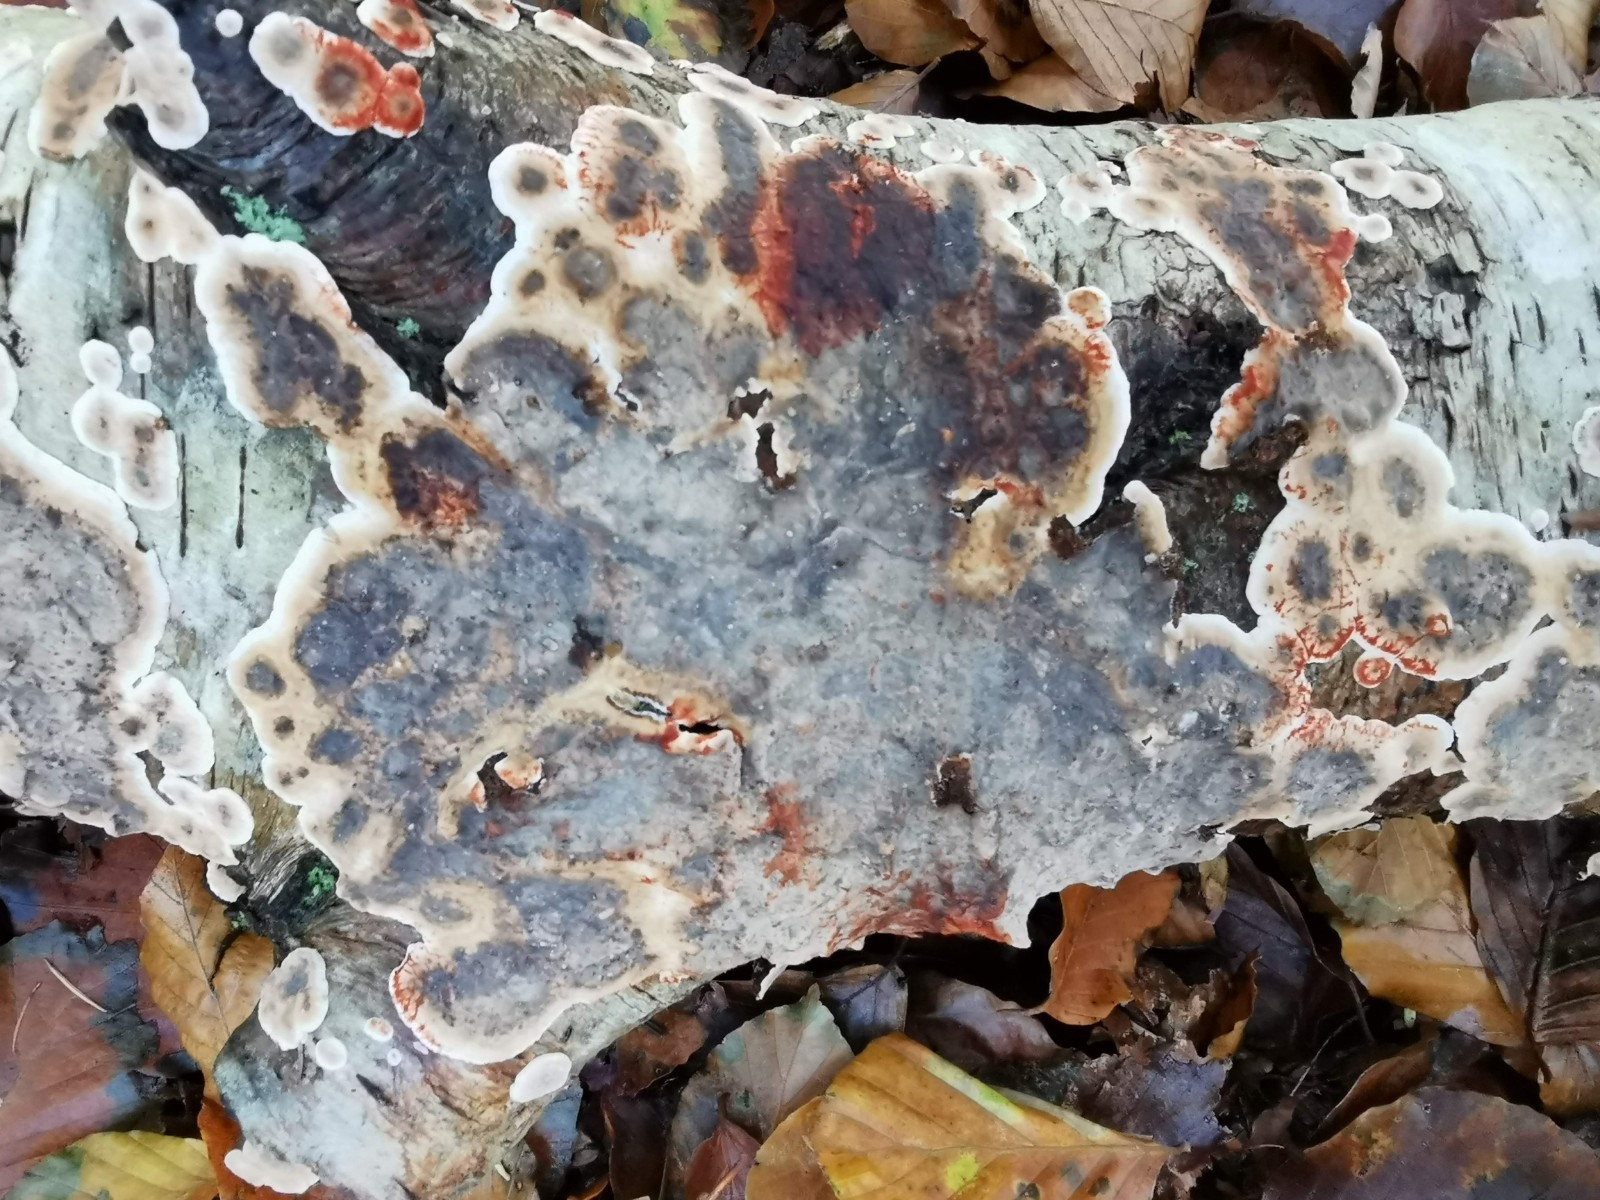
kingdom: Fungi
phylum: Basidiomycota
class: Agaricomycetes
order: Russulales
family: Stereaceae
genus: Stereum
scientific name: Stereum rugosum
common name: rynket lædersvamp
